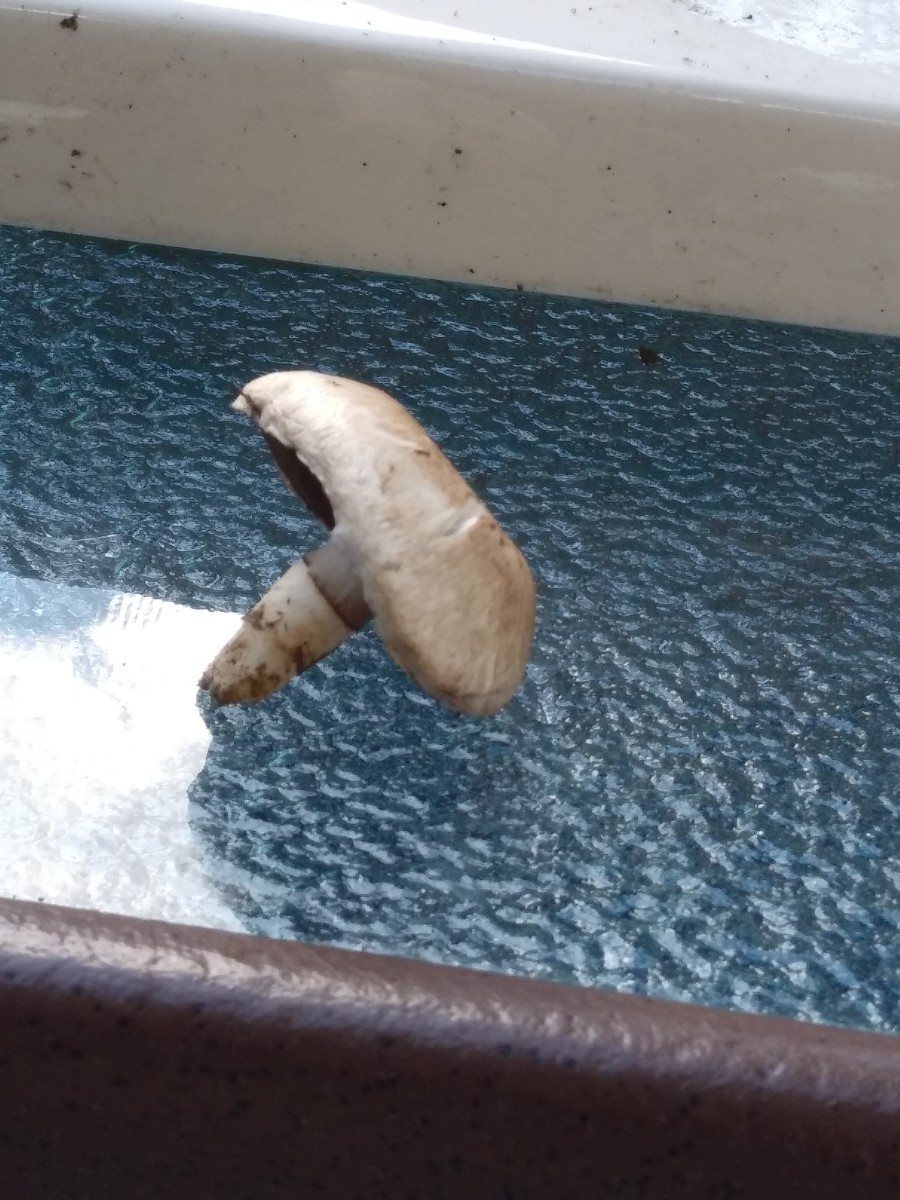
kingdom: Fungi
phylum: Basidiomycota
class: Agaricomycetes
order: Agaricales
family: Agaricaceae
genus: Agaricus
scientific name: Agaricus
